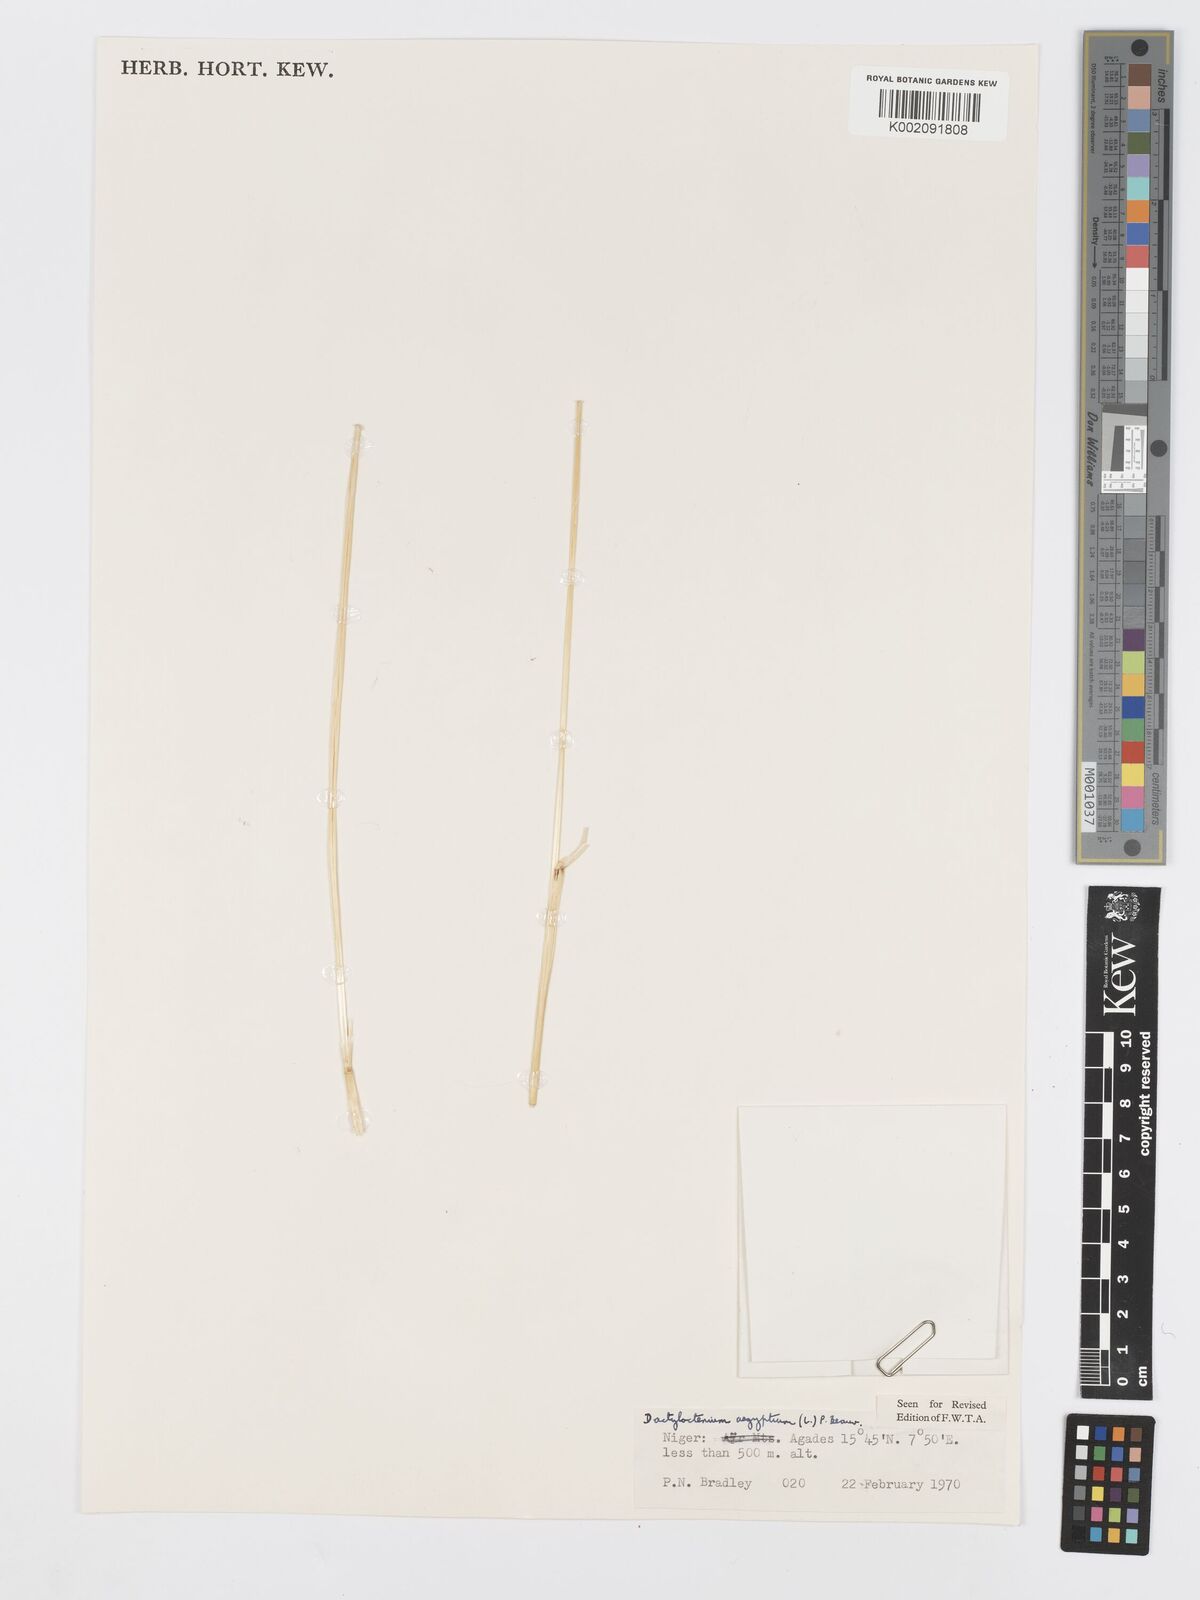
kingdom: Plantae
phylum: Tracheophyta
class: Liliopsida
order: Poales
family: Poaceae
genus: Dactyloctenium
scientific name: Dactyloctenium aegyptium
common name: Egyptian grass
